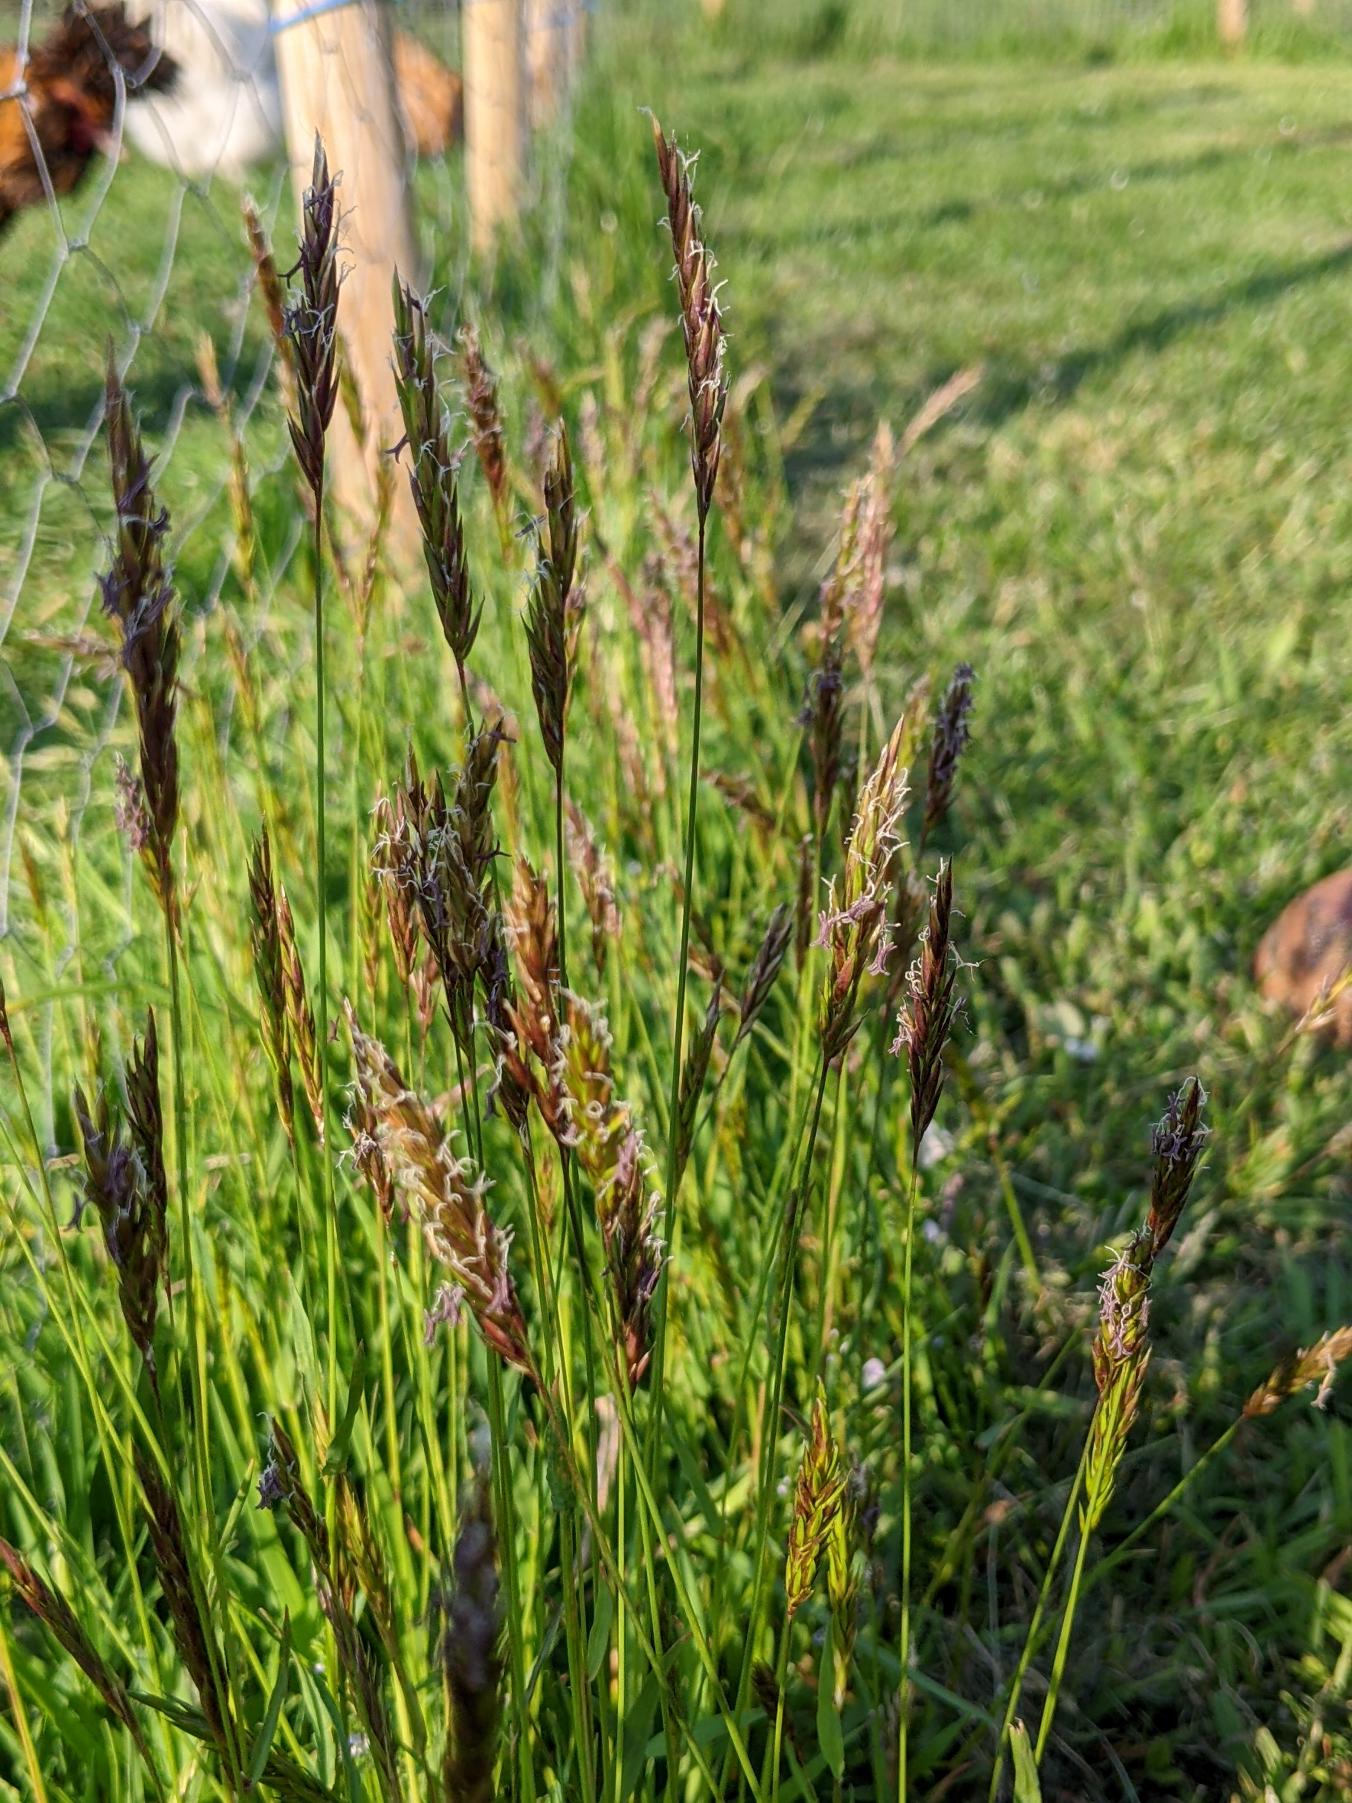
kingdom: Plantae
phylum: Tracheophyta
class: Liliopsida
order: Poales
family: Poaceae
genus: Anthoxanthum
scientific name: Anthoxanthum odoratum
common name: Vellugtende gulaks
